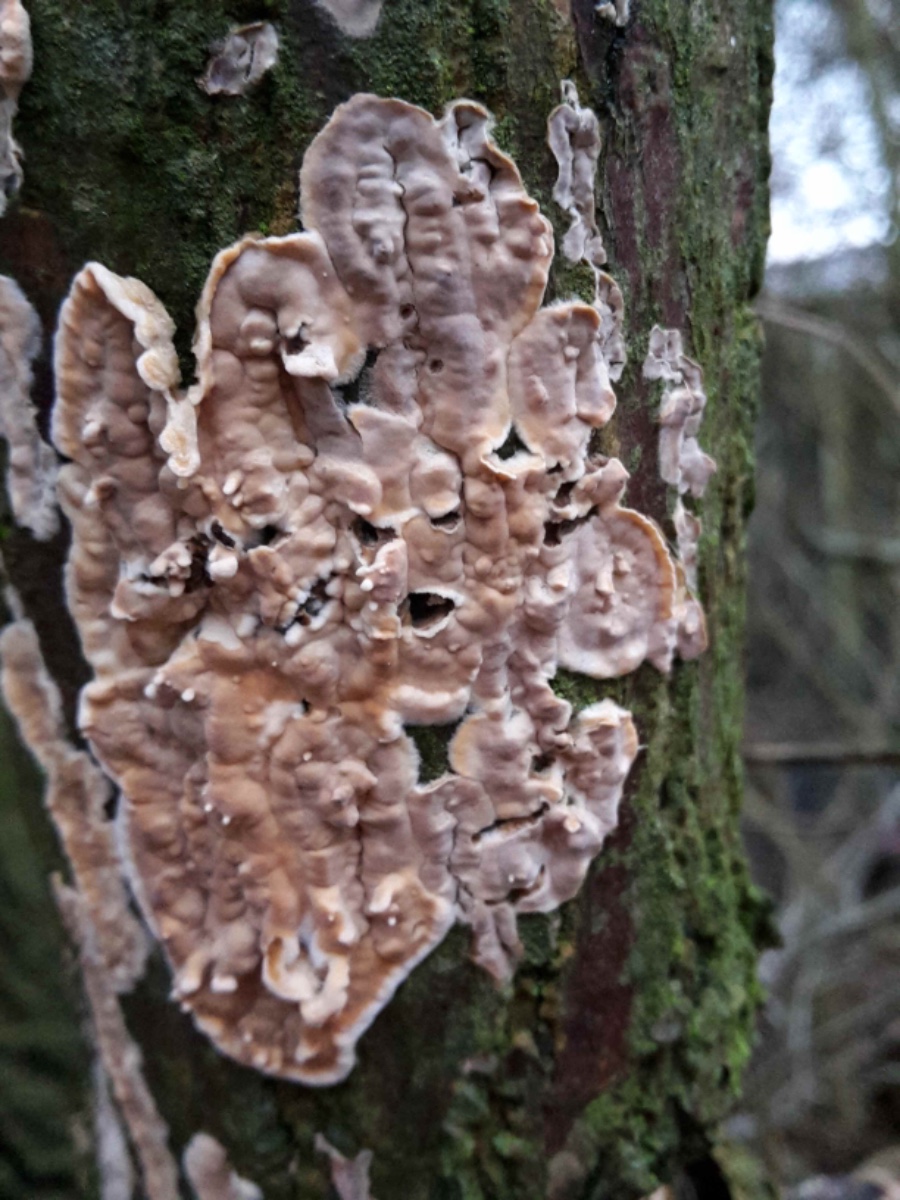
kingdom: Fungi
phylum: Basidiomycota
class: Agaricomycetes
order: Agaricales
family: Physalacriaceae
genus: Cylindrobasidium
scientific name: Cylindrobasidium evolvens
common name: sprækkehinde
